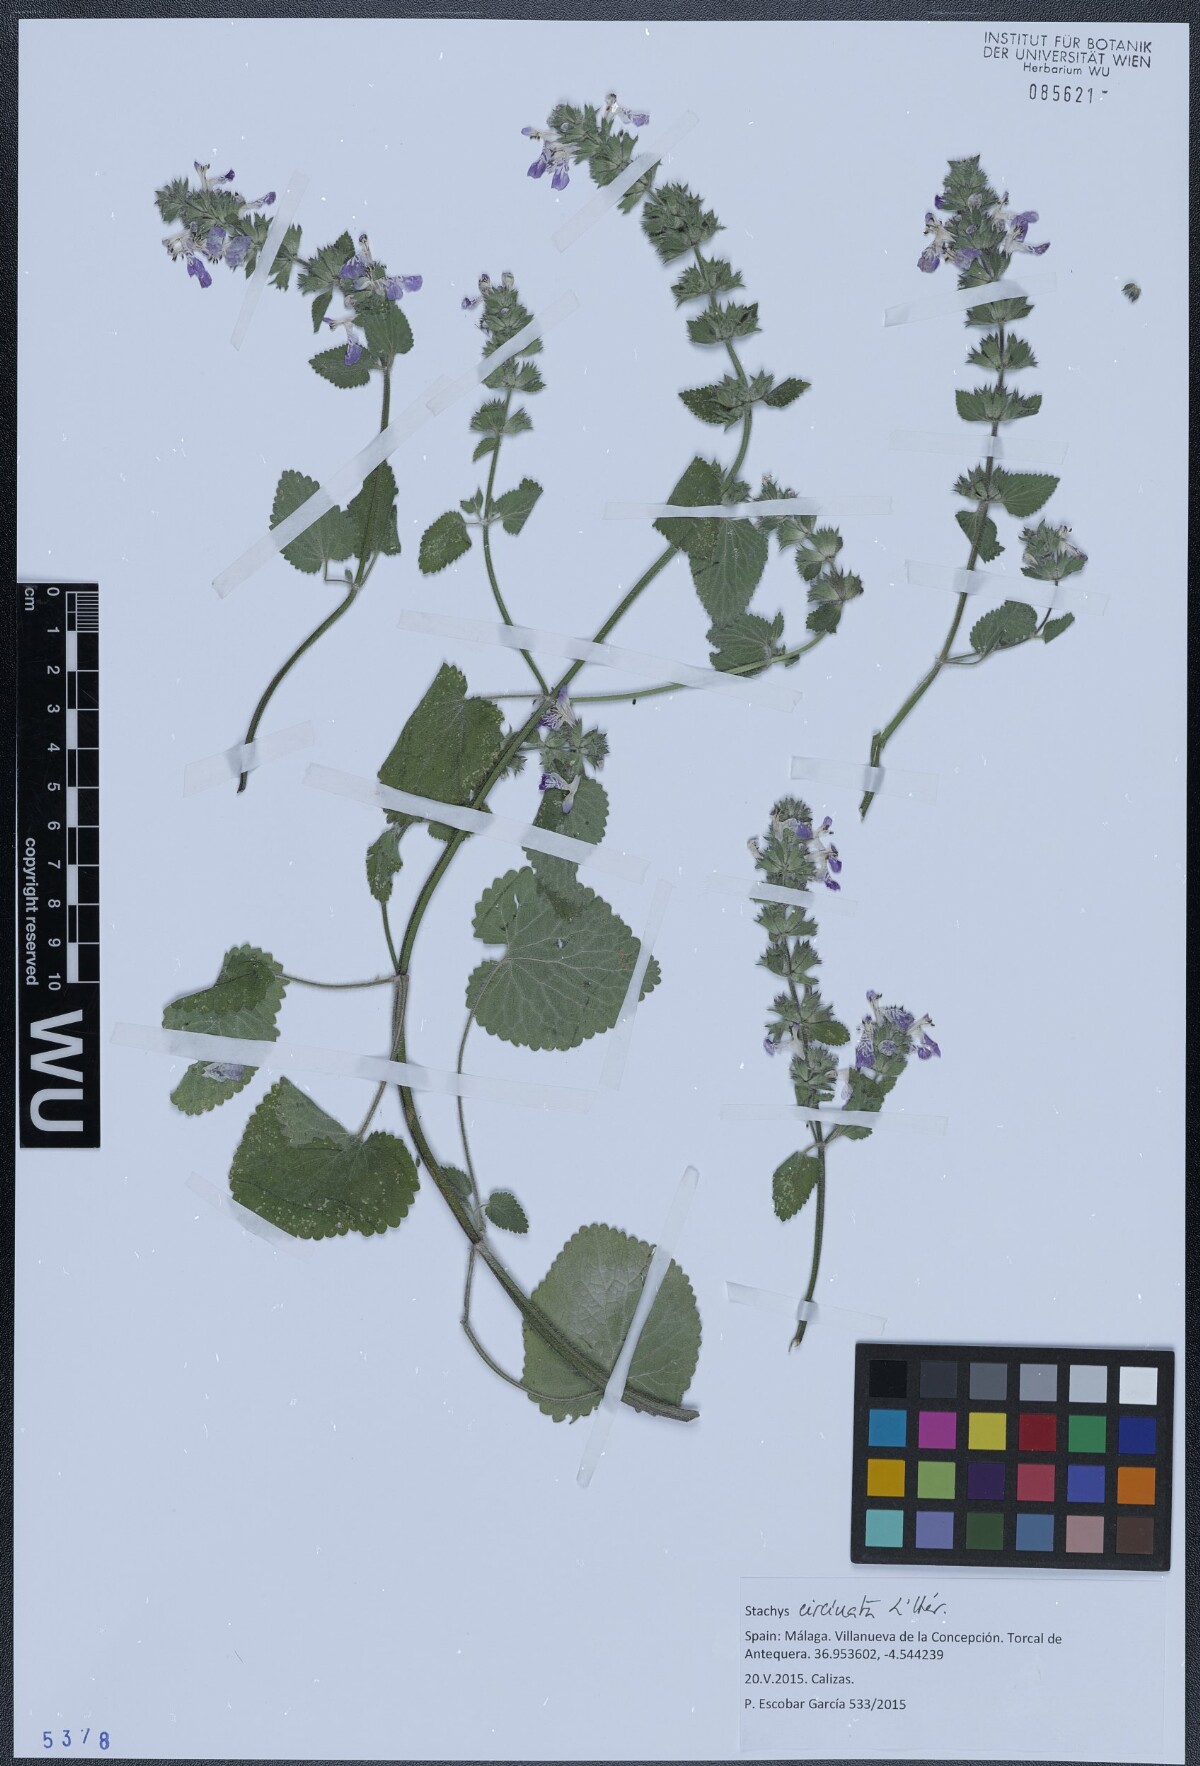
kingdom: Plantae
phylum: Tracheophyta
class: Magnoliopsida
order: Lamiales
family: Lamiaceae
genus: Stachys
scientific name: Stachys circinata
